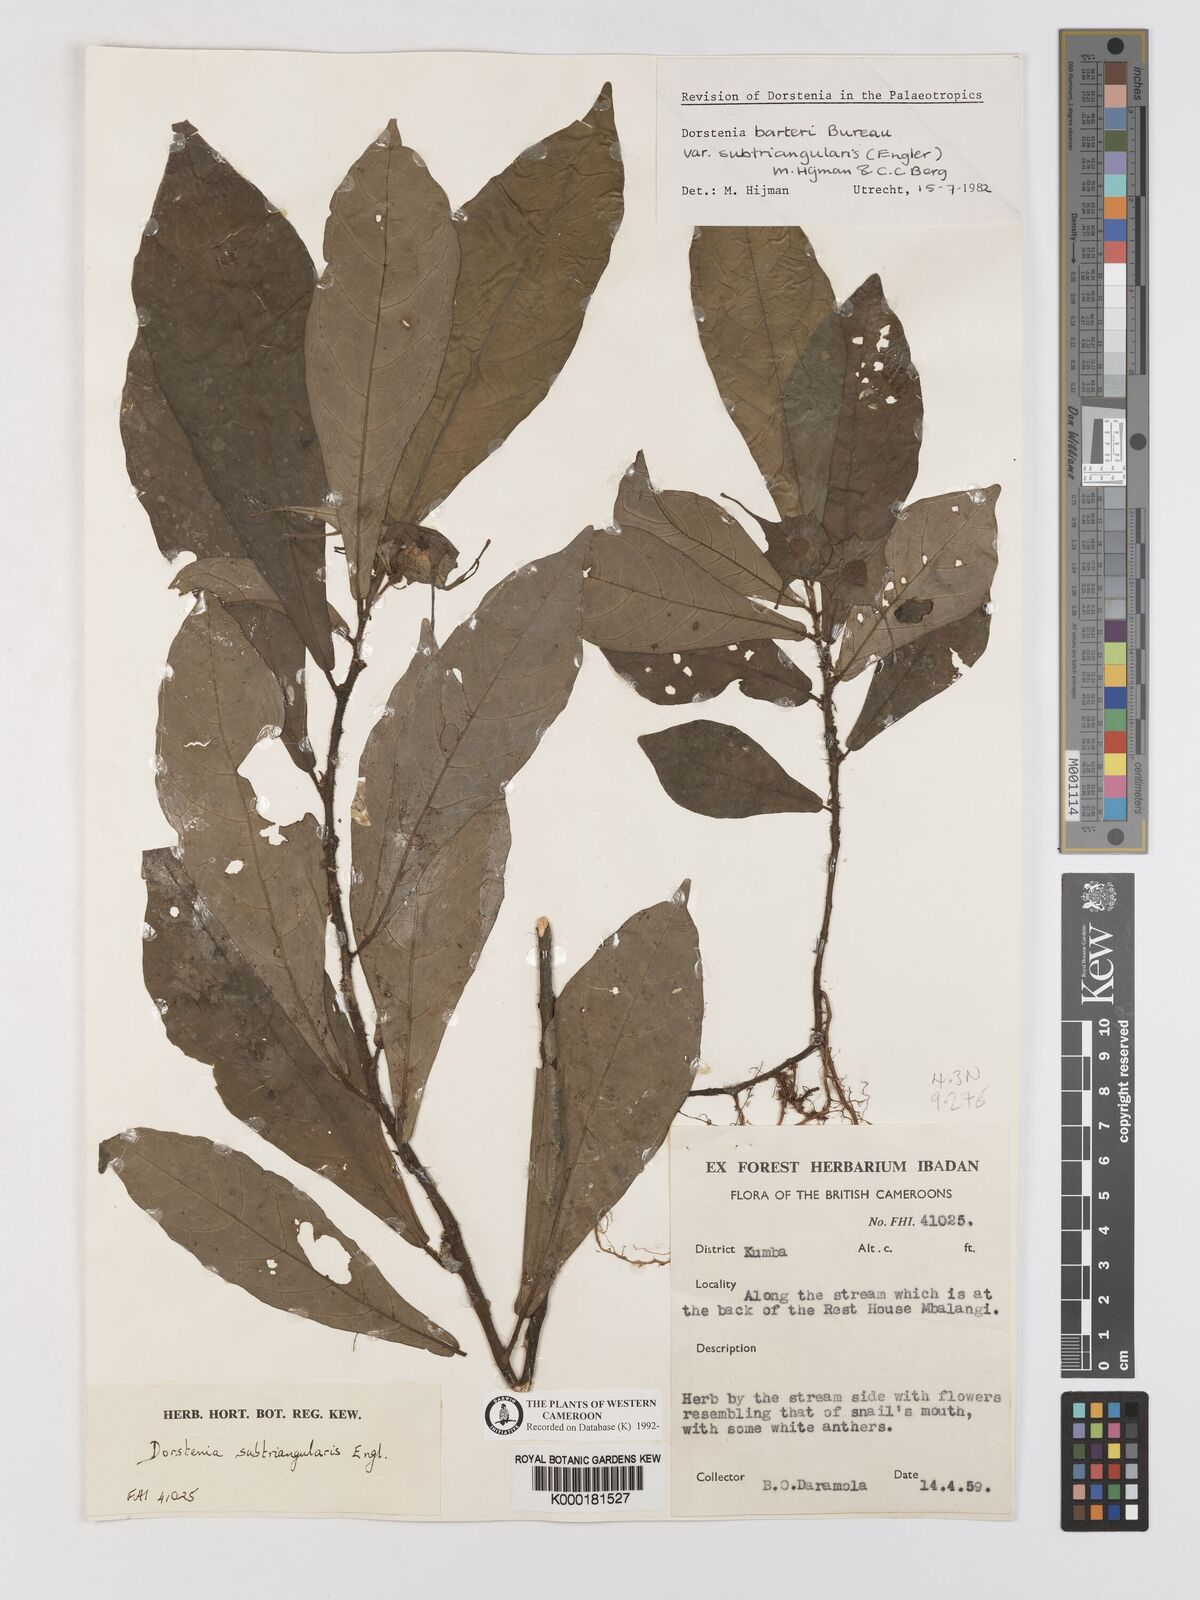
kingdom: Plantae
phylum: Tracheophyta
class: Magnoliopsida
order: Rosales
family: Moraceae
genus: Dorstenia
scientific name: Dorstenia barteri
